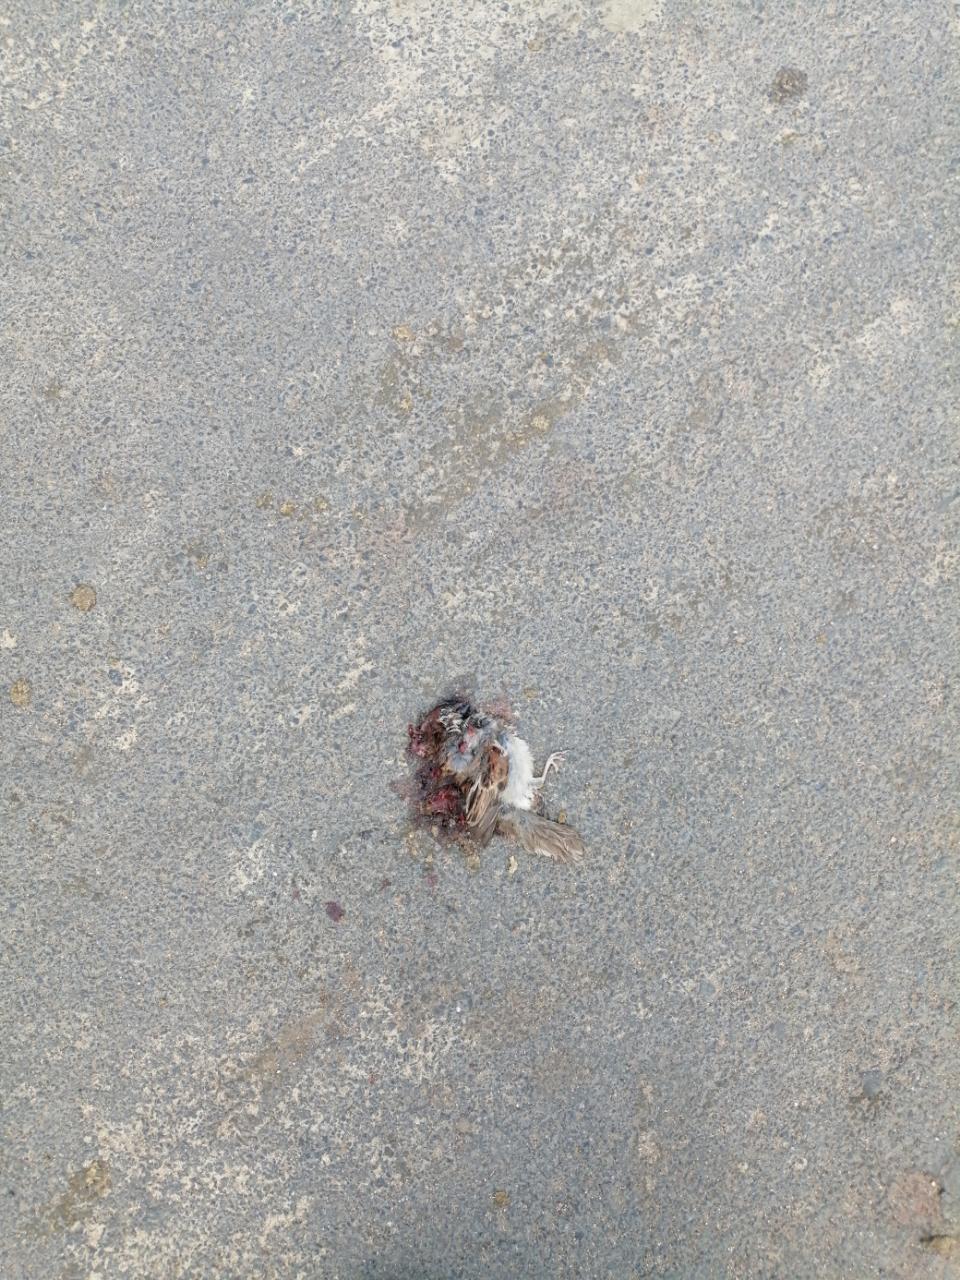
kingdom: Animalia
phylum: Chordata
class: Aves
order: Passeriformes
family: Passeridae
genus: Passer
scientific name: Passer domesticus
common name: House sparrow
